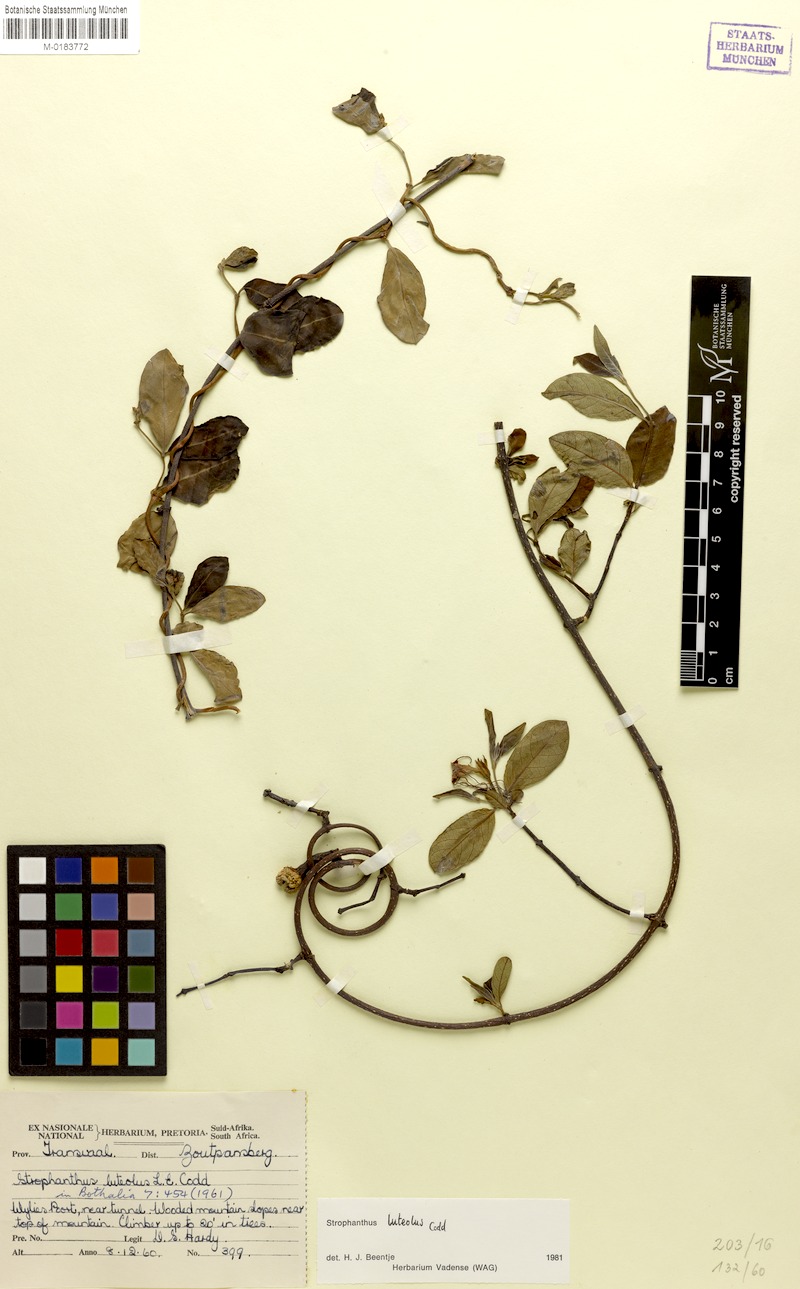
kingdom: Plantae
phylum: Tracheophyta
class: Magnoliopsida
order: Gentianales
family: Apocynaceae
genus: Strophanthus
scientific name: Strophanthus luteolus
